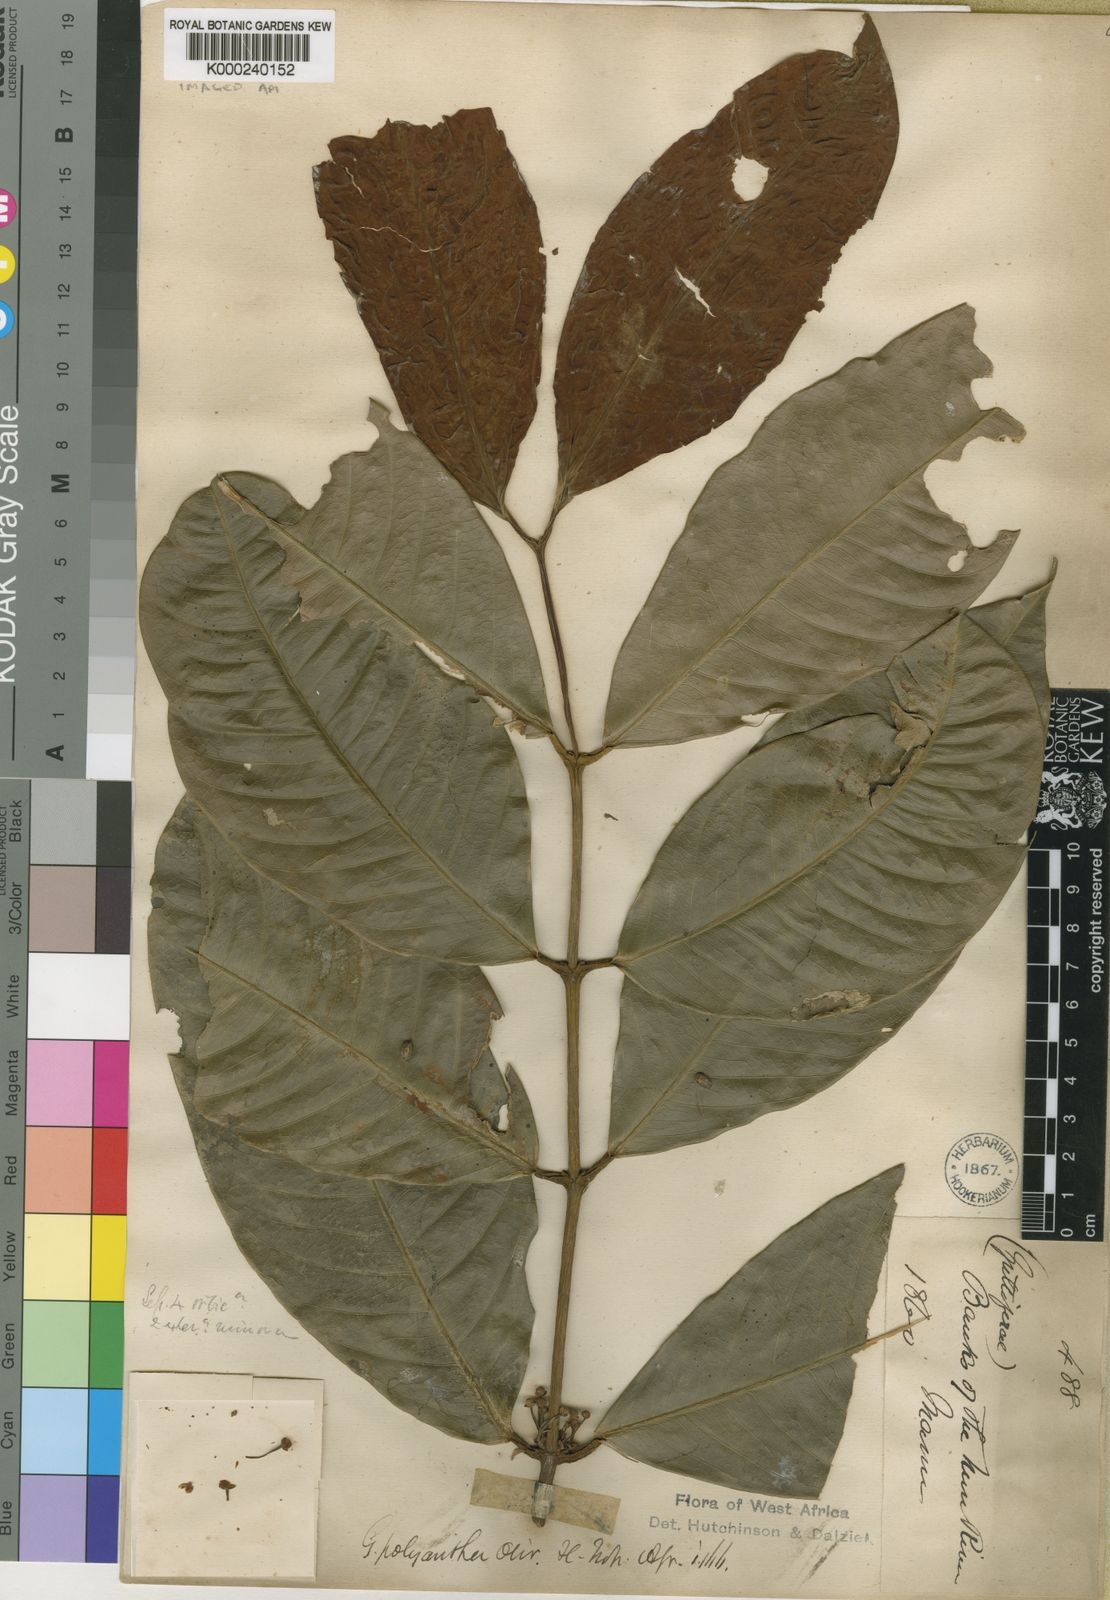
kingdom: Plantae
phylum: Tracheophyta
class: Magnoliopsida
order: Malpighiales
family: Clusiaceae
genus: Garcinia
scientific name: Garcinia smeathmannii
